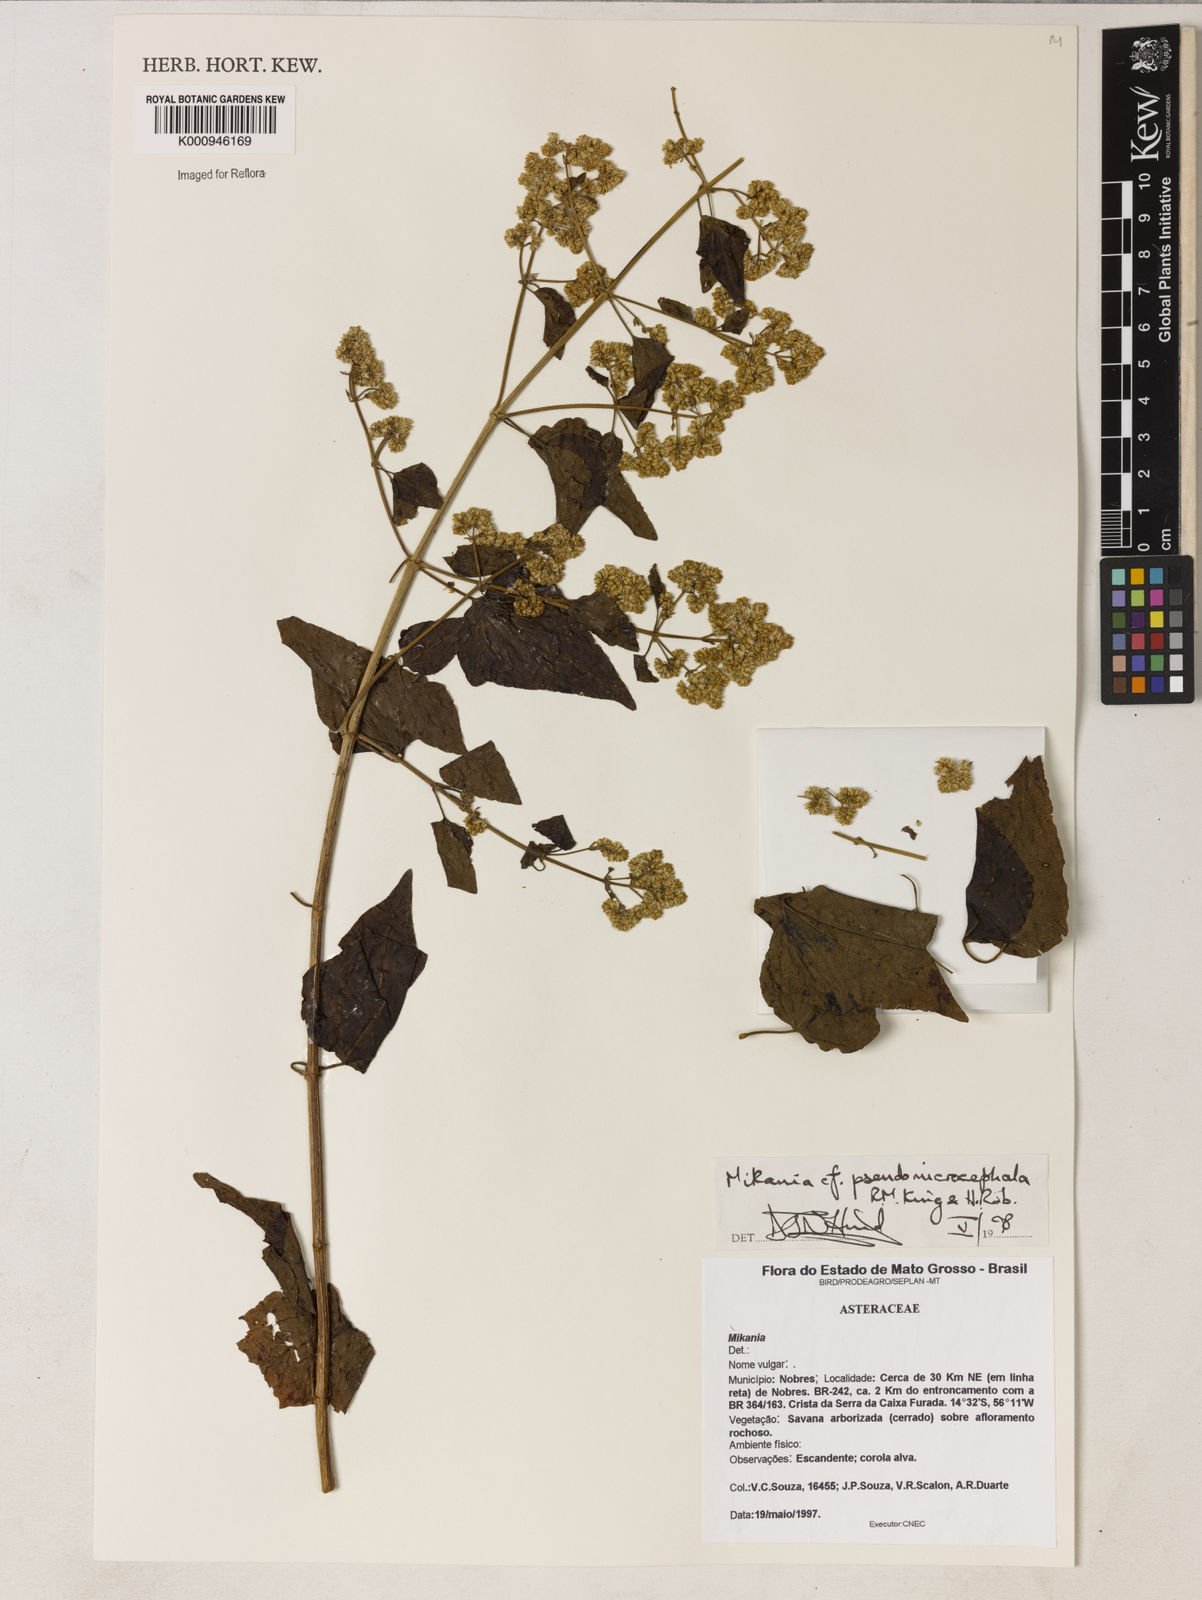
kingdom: Plantae
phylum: Tracheophyta
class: Magnoliopsida
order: Asterales
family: Asteraceae
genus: Mikania
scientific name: Mikania pseudomicrocephala
